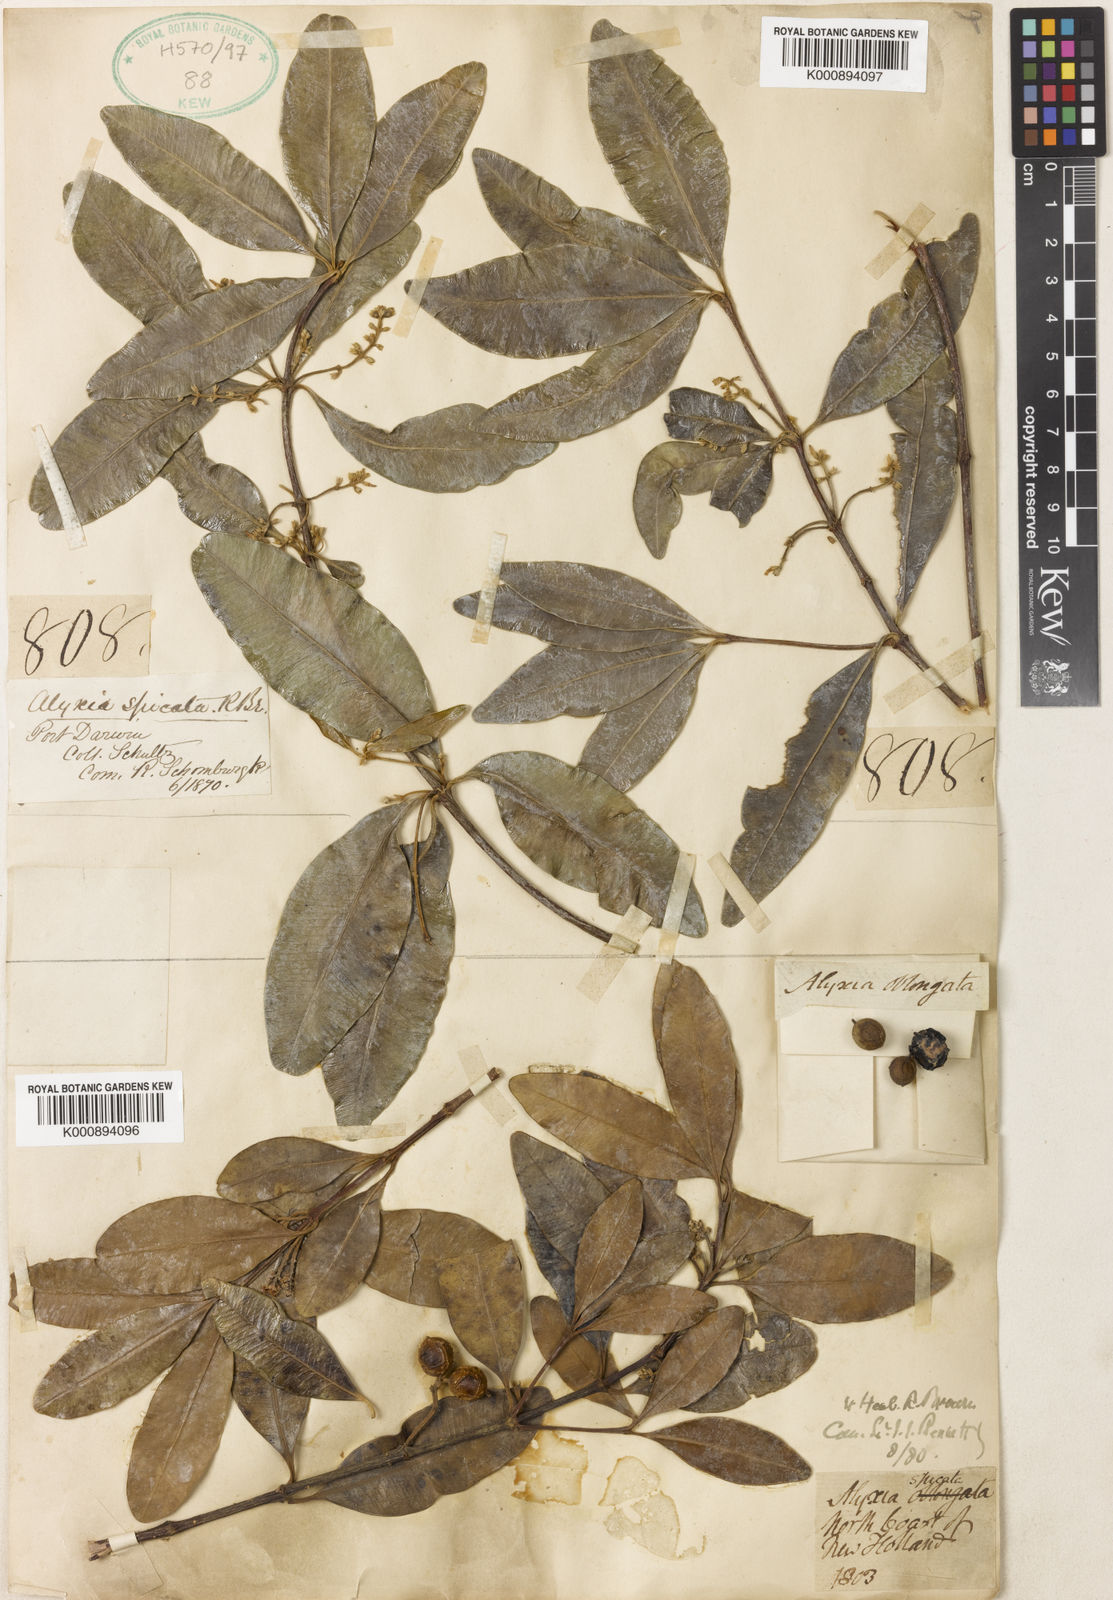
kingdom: Plantae
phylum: Tracheophyta
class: Magnoliopsida
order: Gentianales
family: Apocynaceae
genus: Alyxia
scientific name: Alyxia spicata
